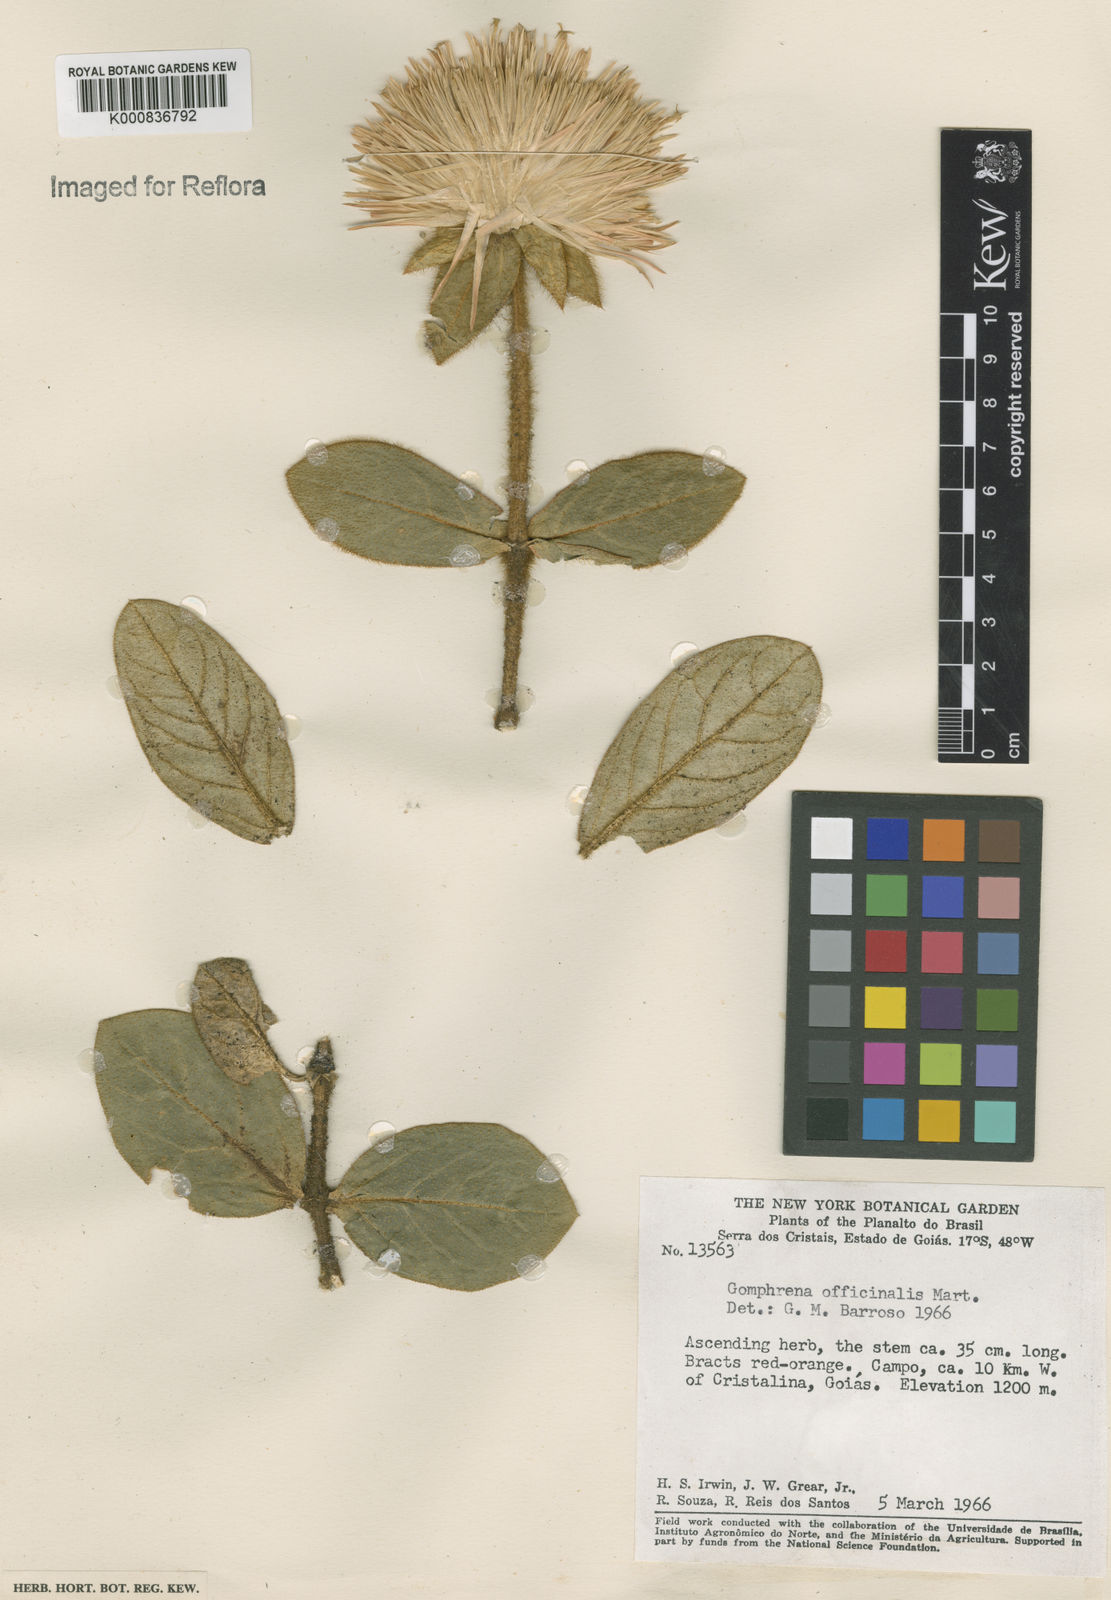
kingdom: Plantae
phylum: Tracheophyta
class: Magnoliopsida
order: Caryophyllales
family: Amaranthaceae
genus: Gomphrena
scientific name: Gomphrena arborescens
